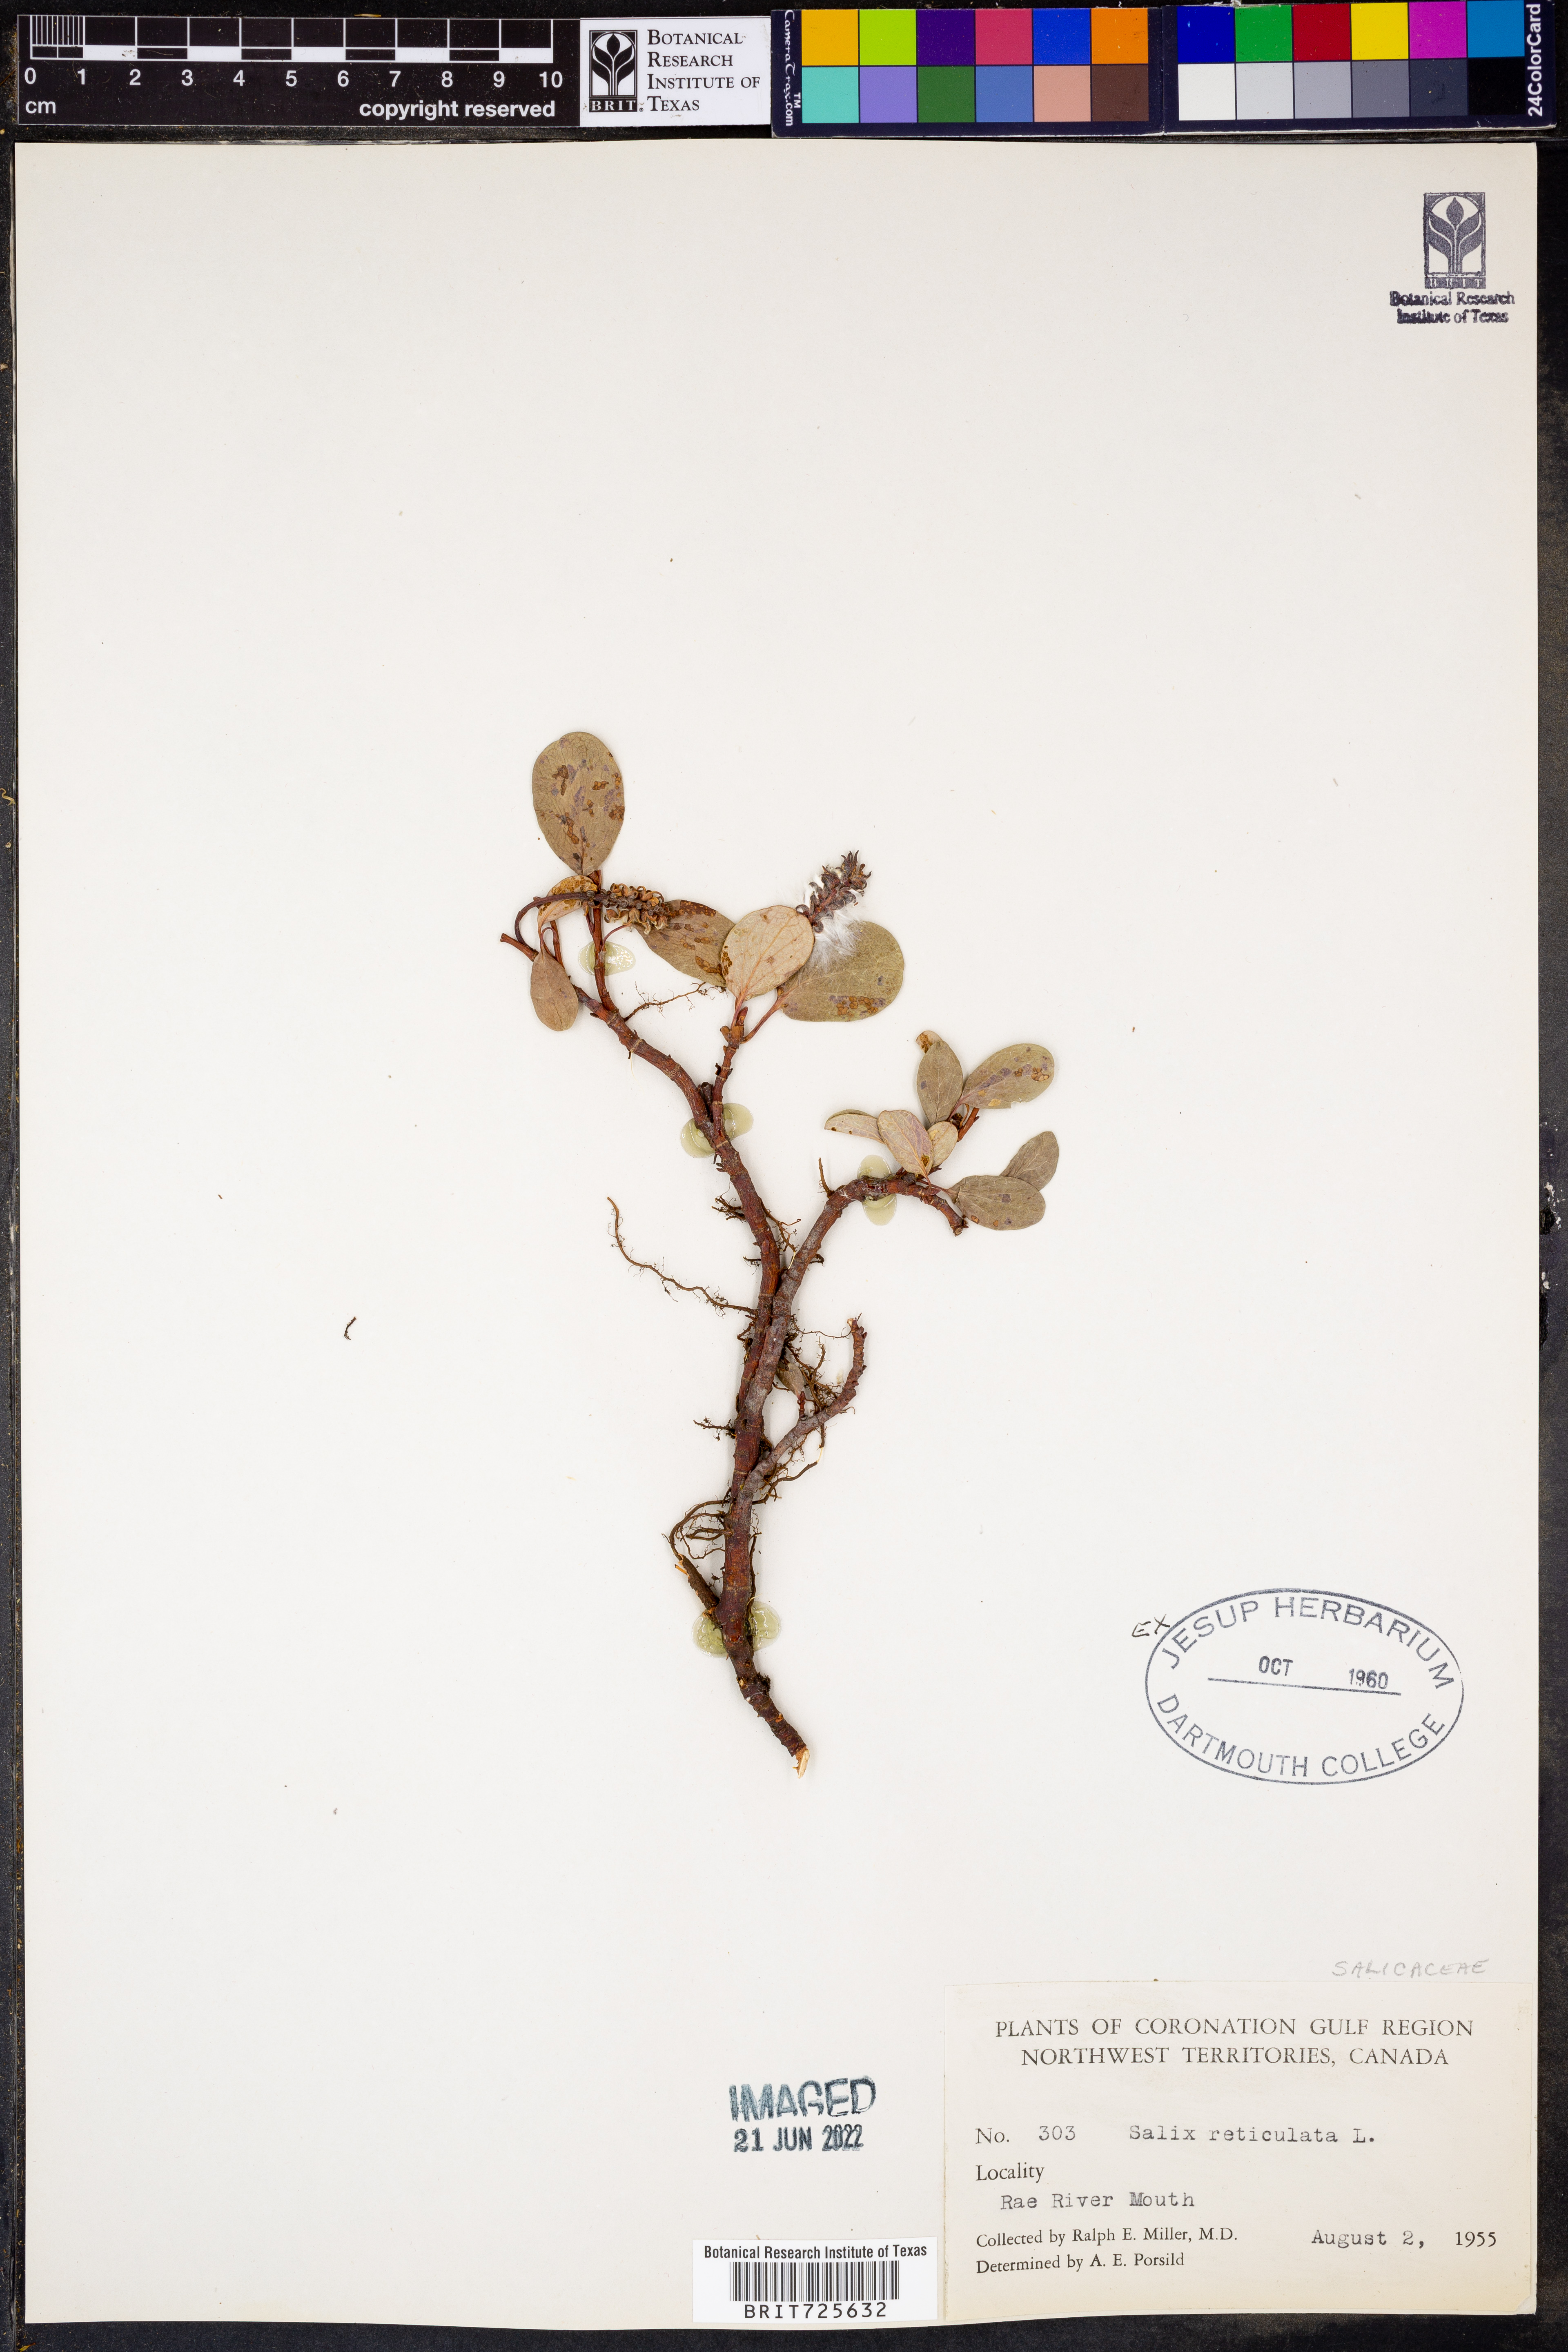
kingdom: Plantae
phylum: Tracheophyta
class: Magnoliopsida
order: Malpighiales
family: Salicaceae
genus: Salix
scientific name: Salix
